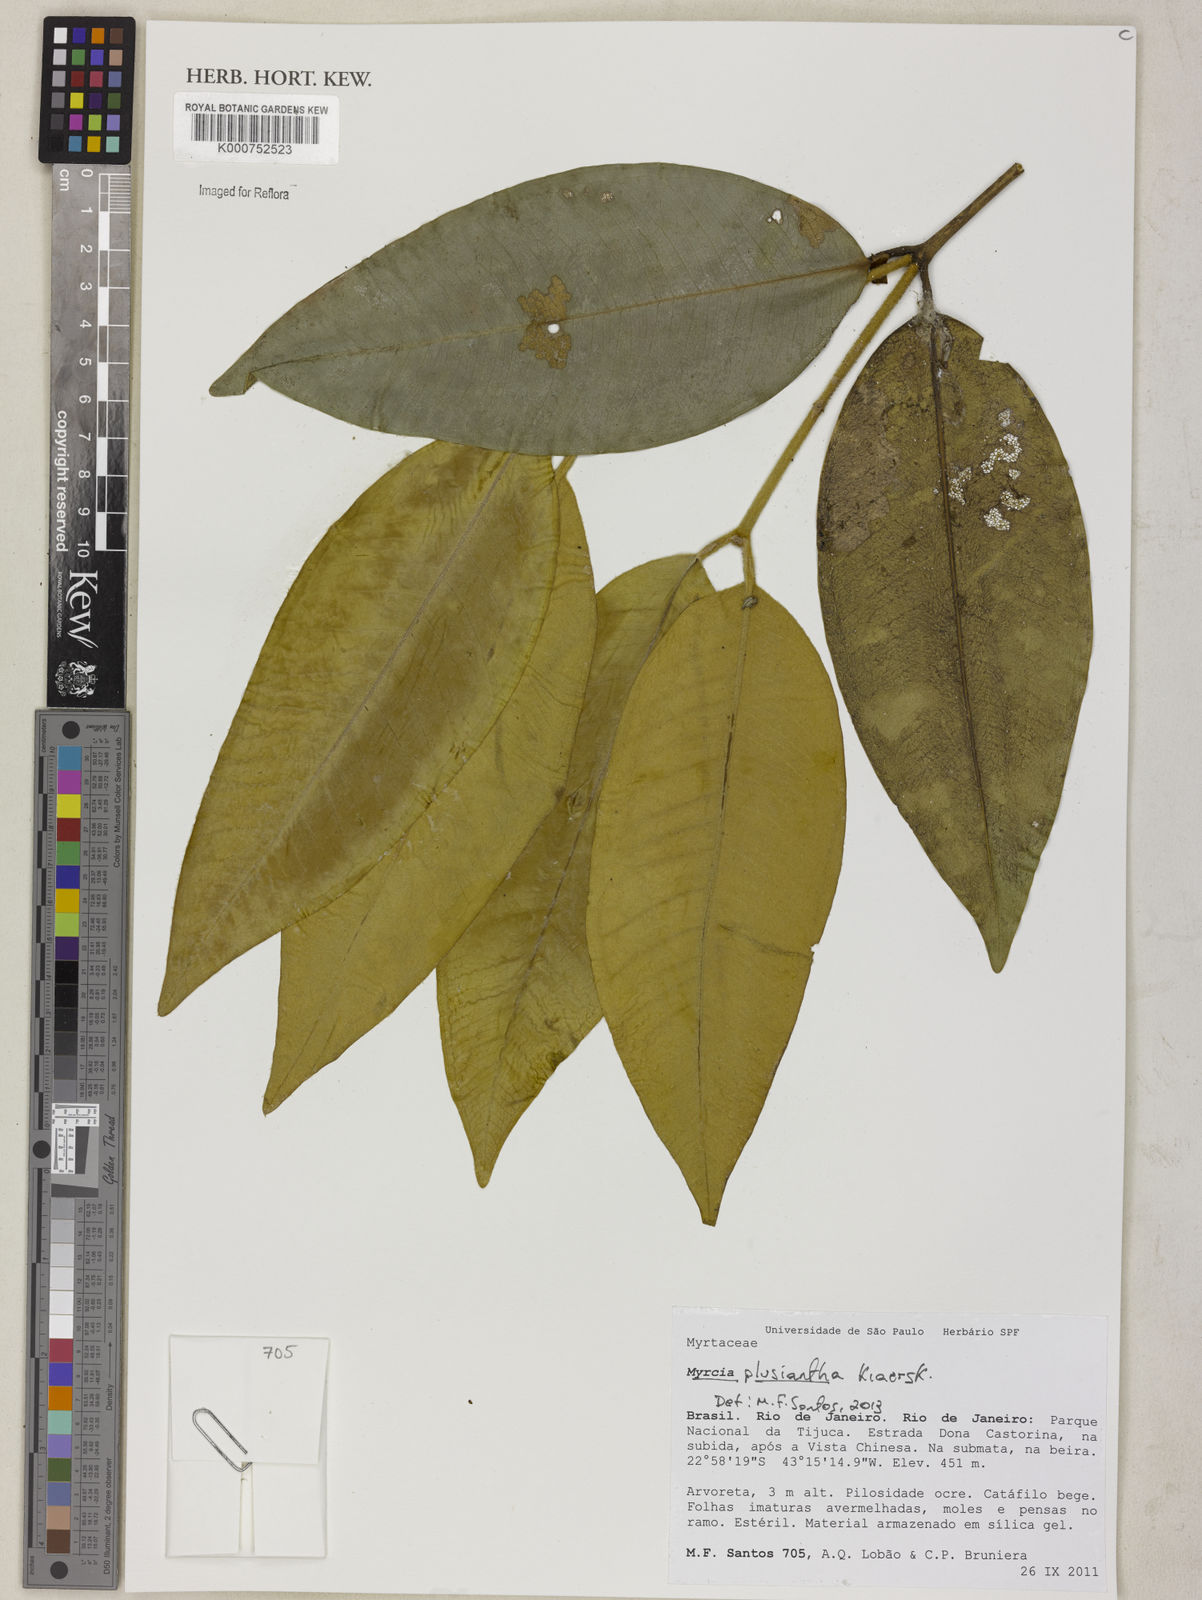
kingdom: Plantae
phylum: Tracheophyta
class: Magnoliopsida
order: Myrtales
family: Myrtaceae
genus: Myrcia
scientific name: Myrcia plusiantha
